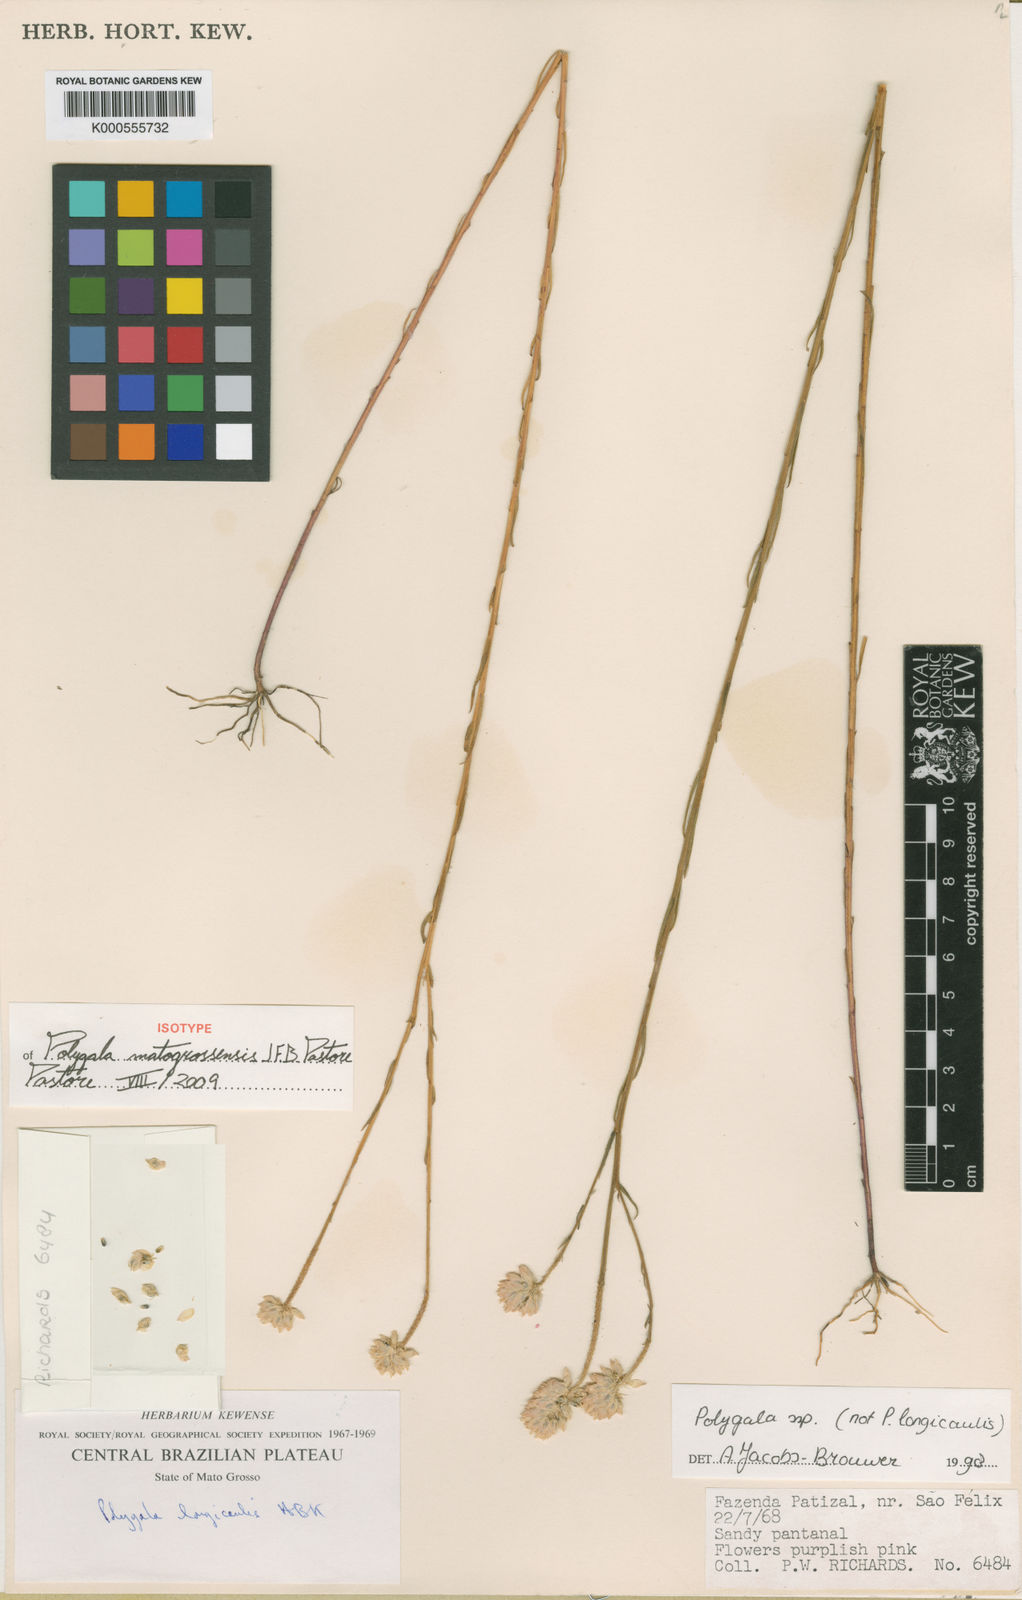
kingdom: Plantae
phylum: Tracheophyta
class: Magnoliopsida
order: Fabales
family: Polygalaceae
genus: Polygala
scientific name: Polygala
